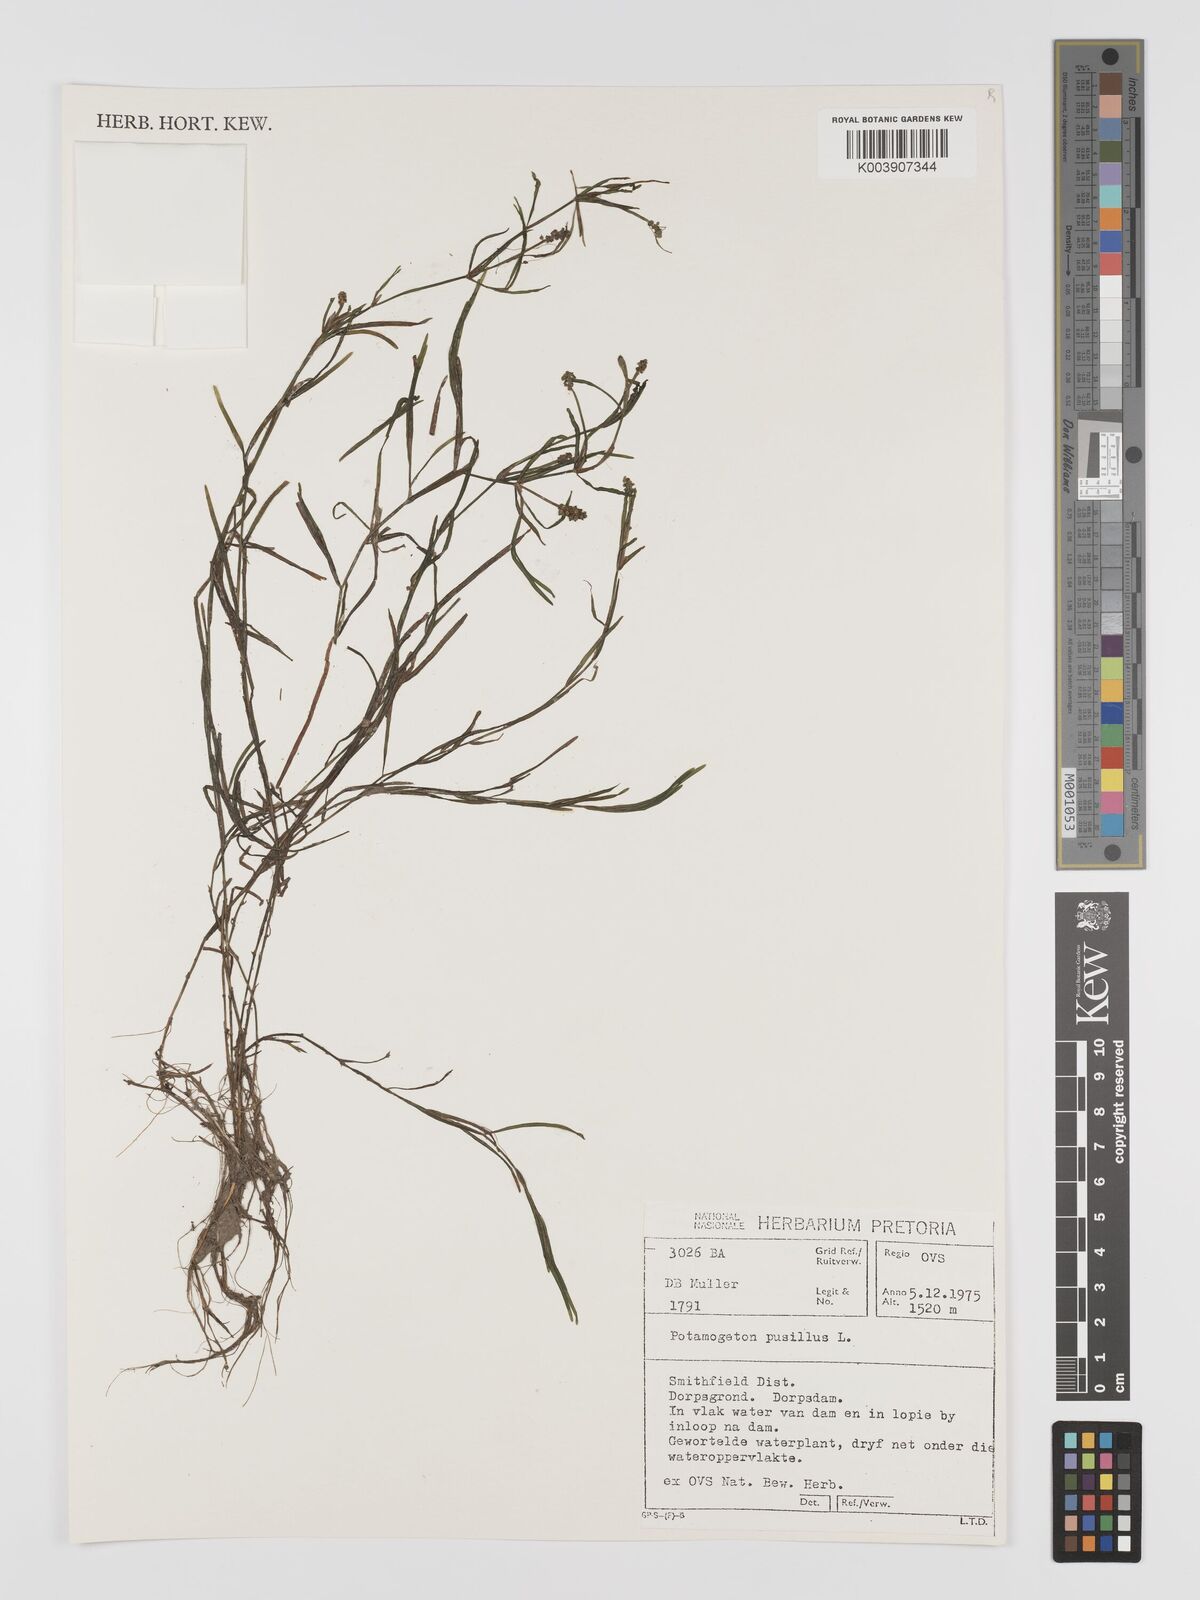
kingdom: Plantae
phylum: Tracheophyta
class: Liliopsida
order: Alismatales
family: Potamogetonaceae
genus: Potamogeton
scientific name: Potamogeton pusillus
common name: Lesser pondweed
